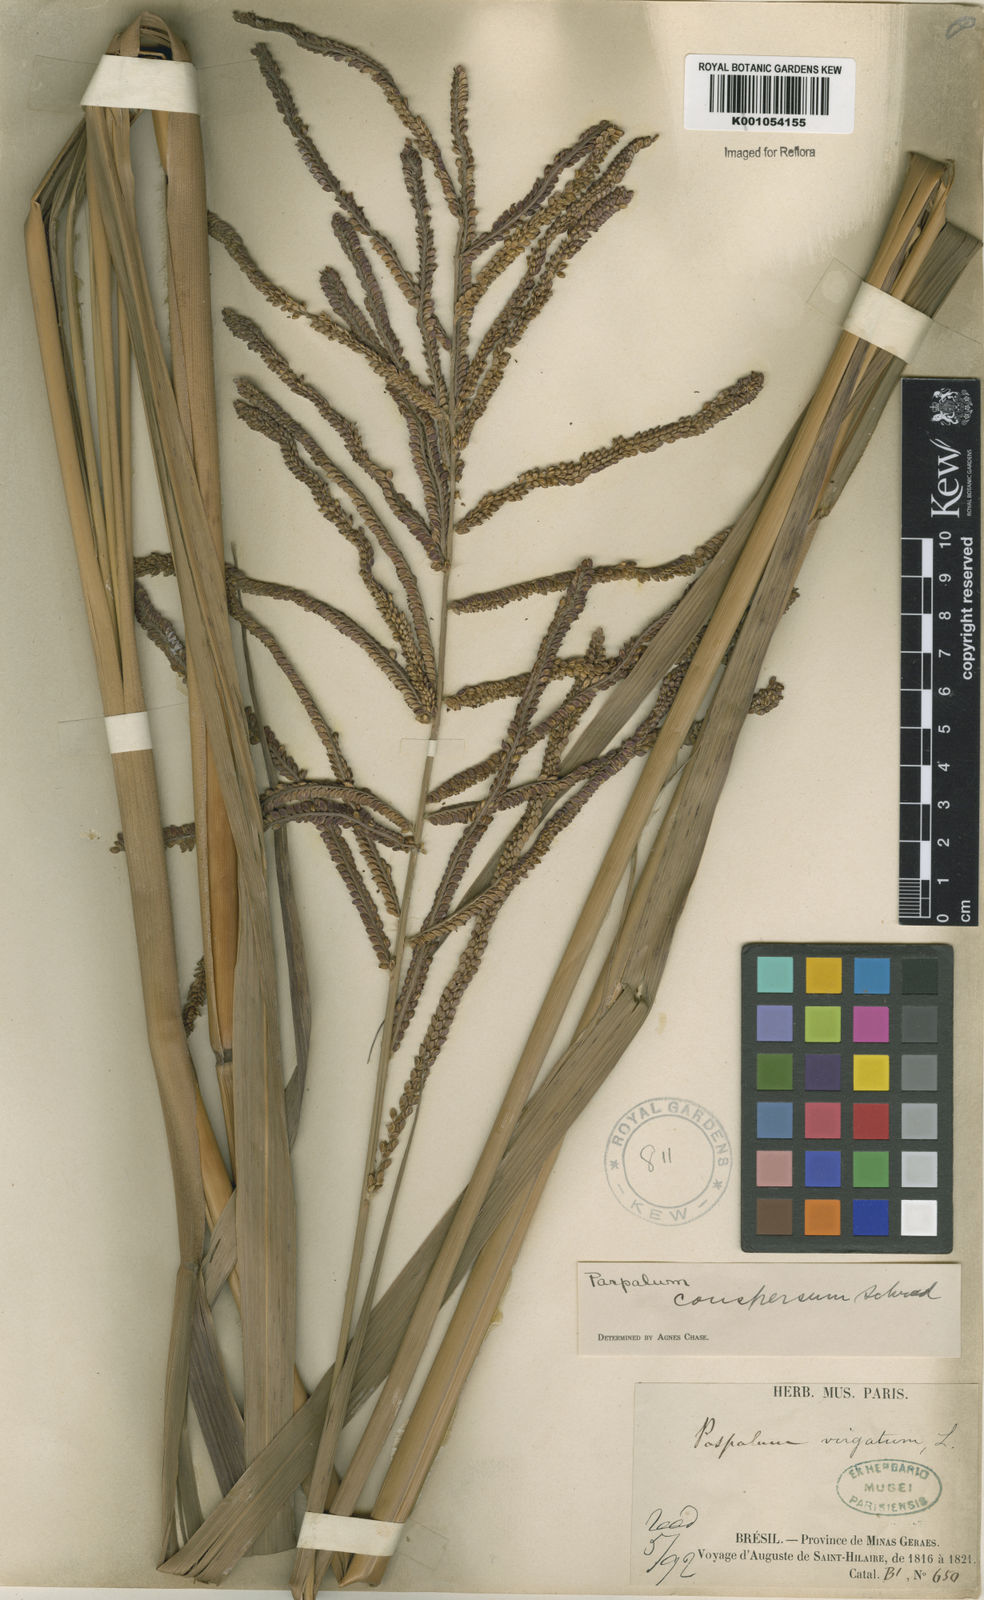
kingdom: Plantae
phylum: Tracheophyta
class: Liliopsida
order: Poales
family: Poaceae
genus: Paspalum
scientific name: Paspalum conspersum
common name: Scattered paspalum
